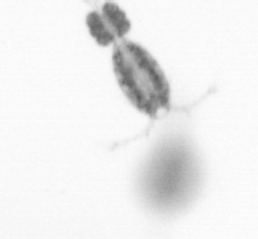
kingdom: Animalia
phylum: Arthropoda
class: Copepoda
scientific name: Copepoda
